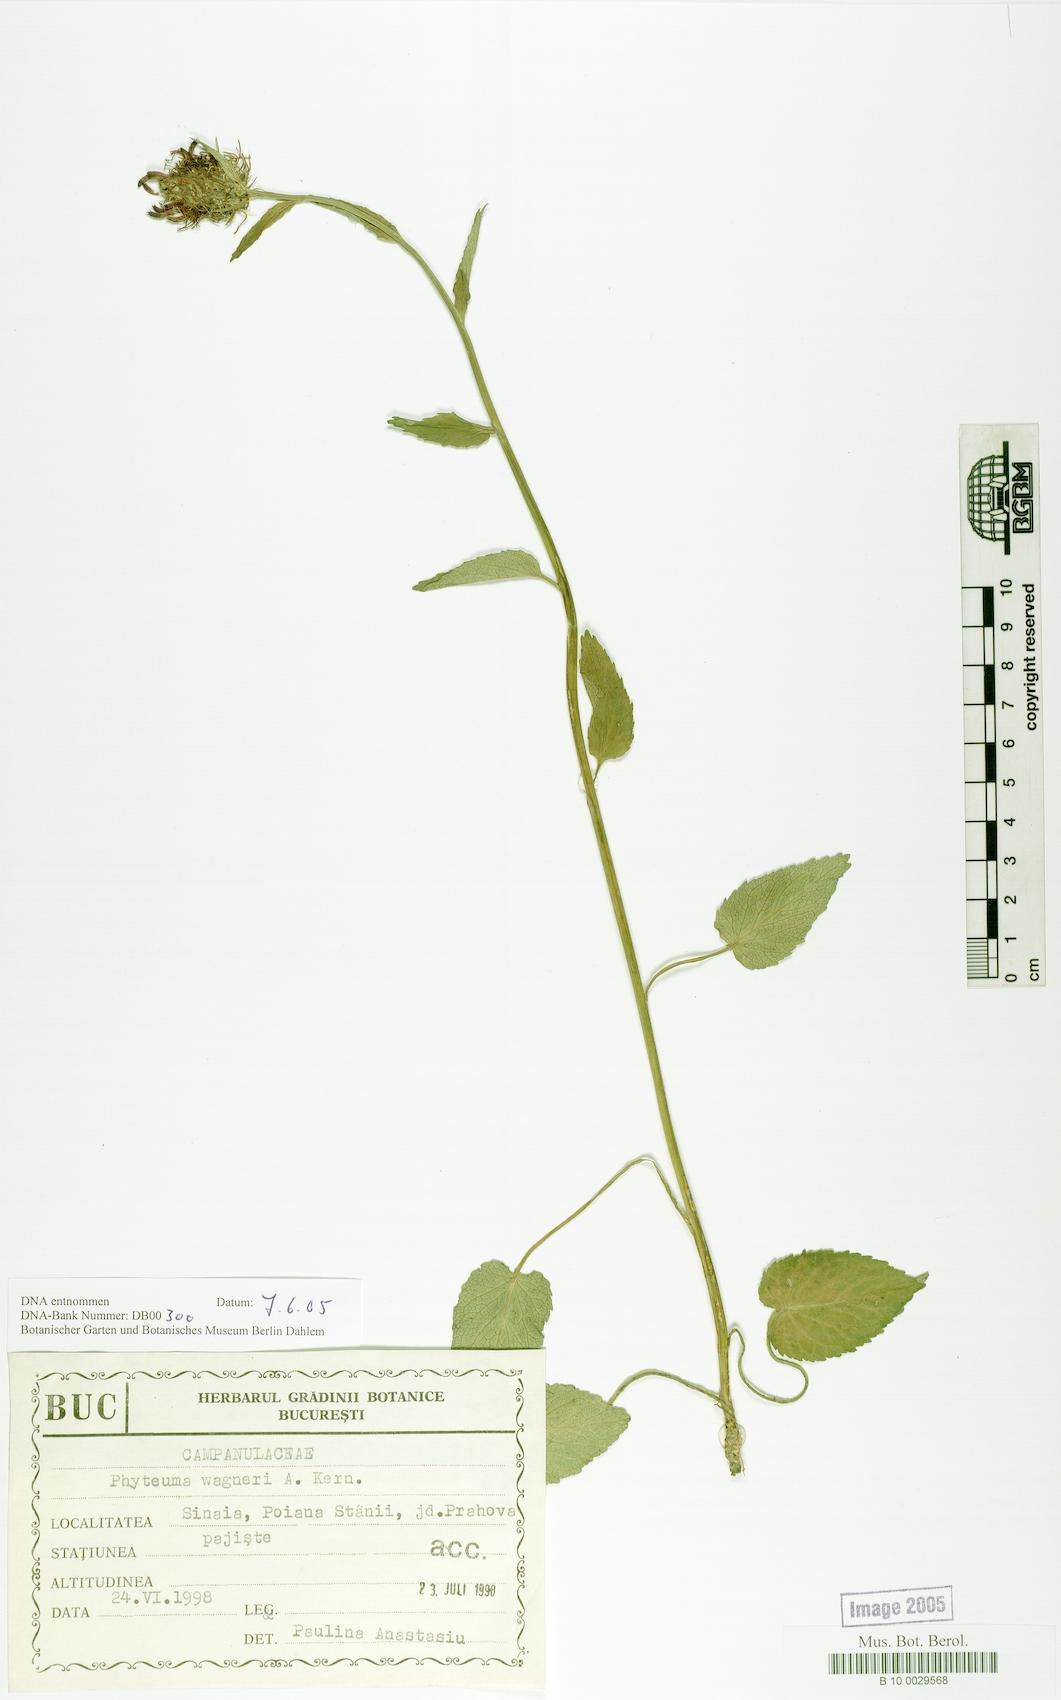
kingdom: Plantae
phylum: Tracheophyta
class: Magnoliopsida
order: Asterales
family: Campanulaceae
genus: Phyteuma
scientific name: Phyteuma vagneri
